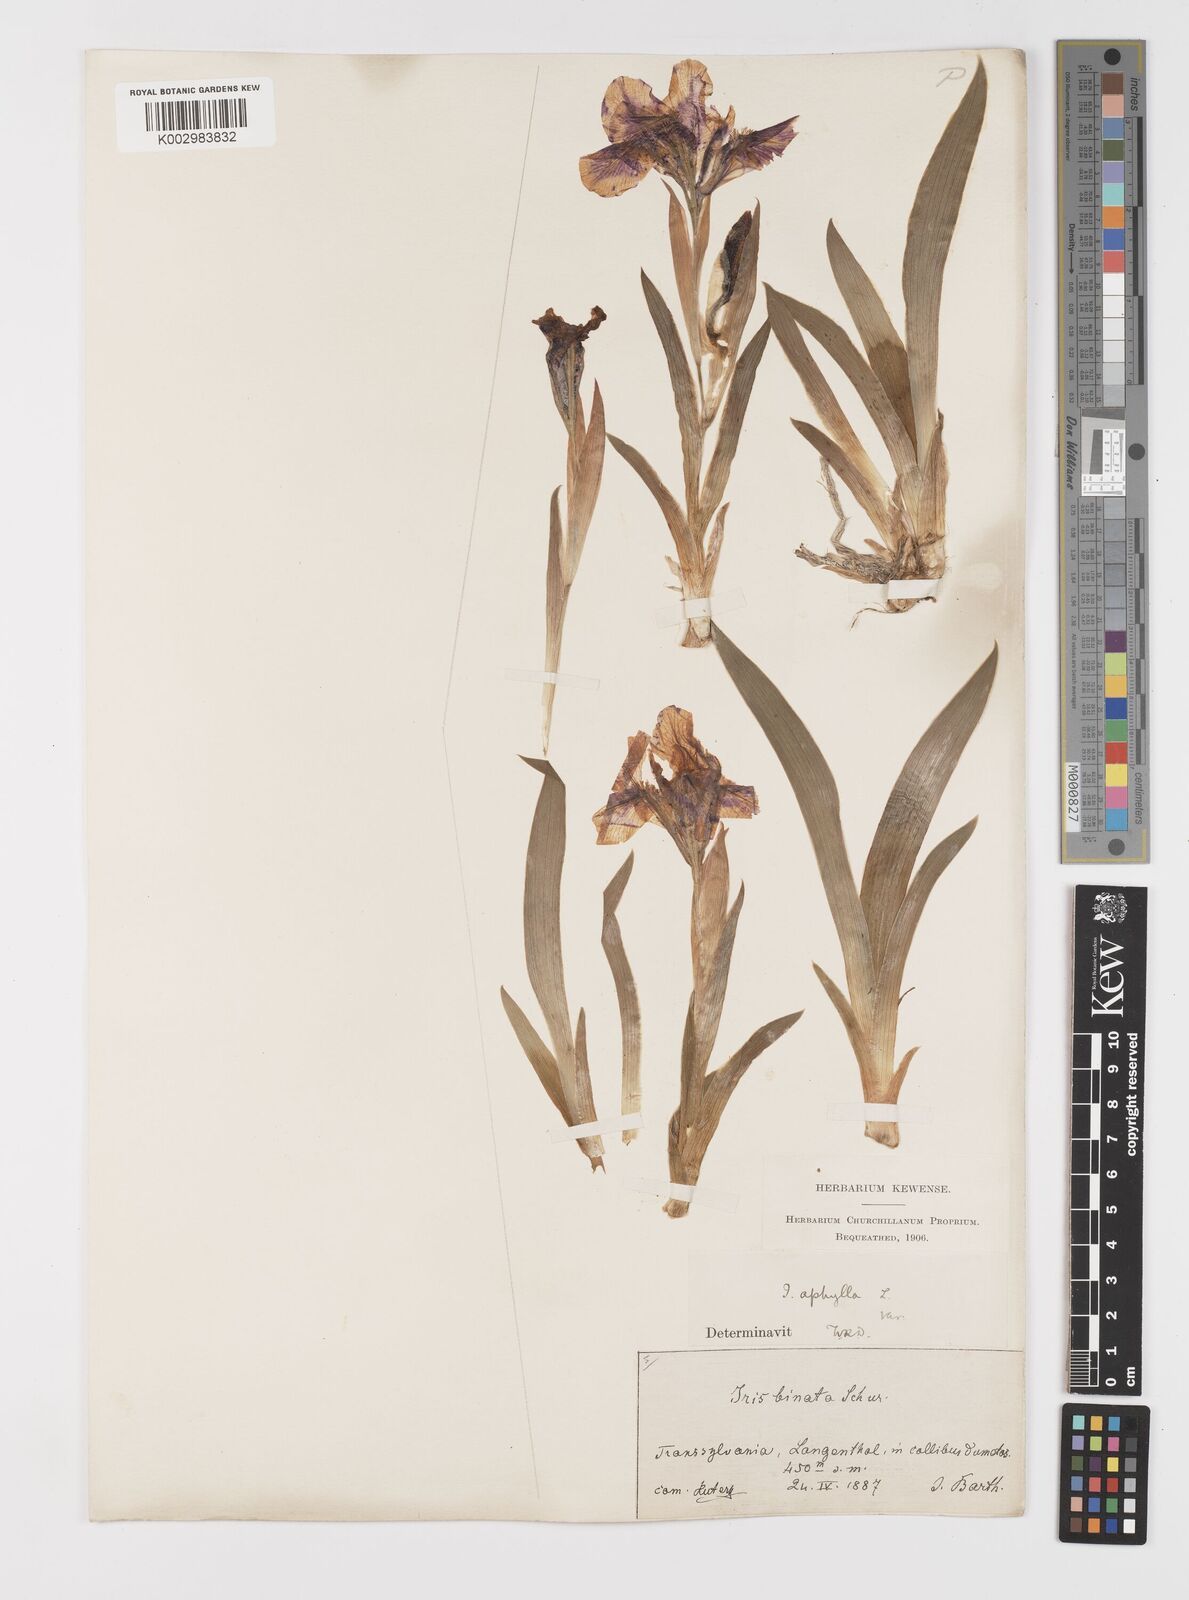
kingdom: Plantae
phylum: Tracheophyta
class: Liliopsida
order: Asparagales
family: Iridaceae
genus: Iris
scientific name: Iris aphylla
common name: Stool iris
